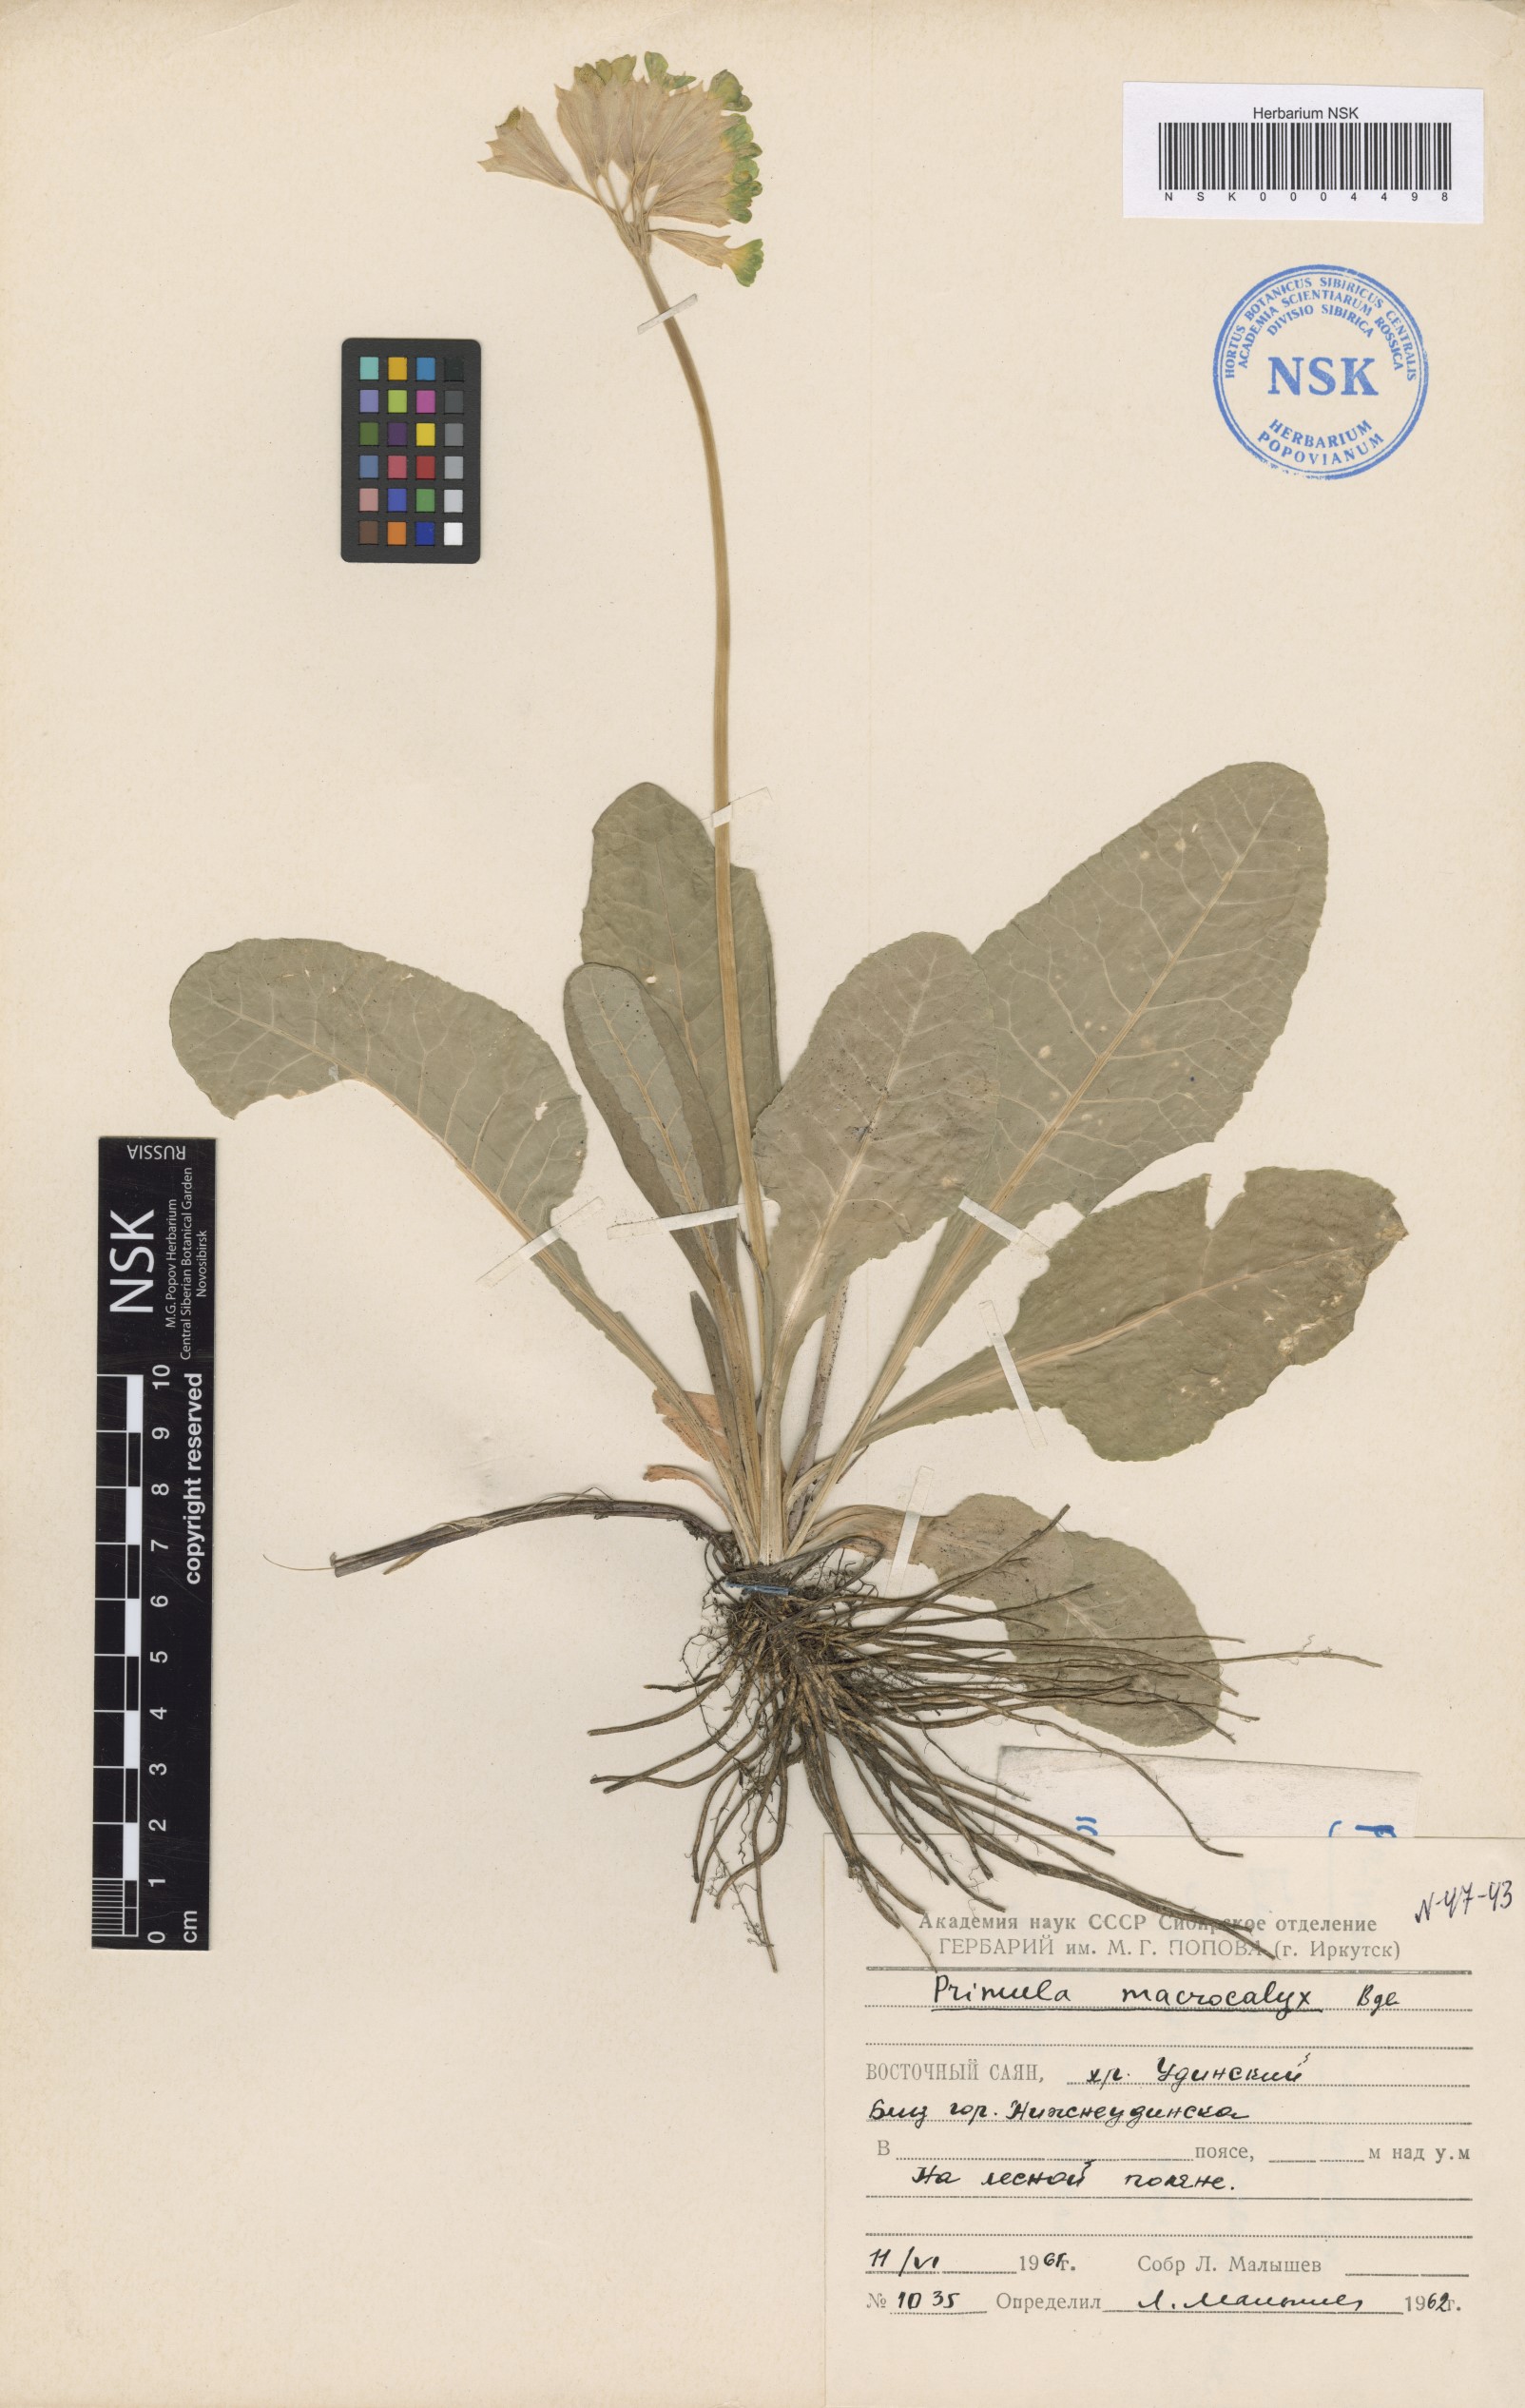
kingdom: Plantae
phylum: Tracheophyta
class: Magnoliopsida
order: Ericales
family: Primulaceae
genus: Primula
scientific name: Primula veris
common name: Cowslip
